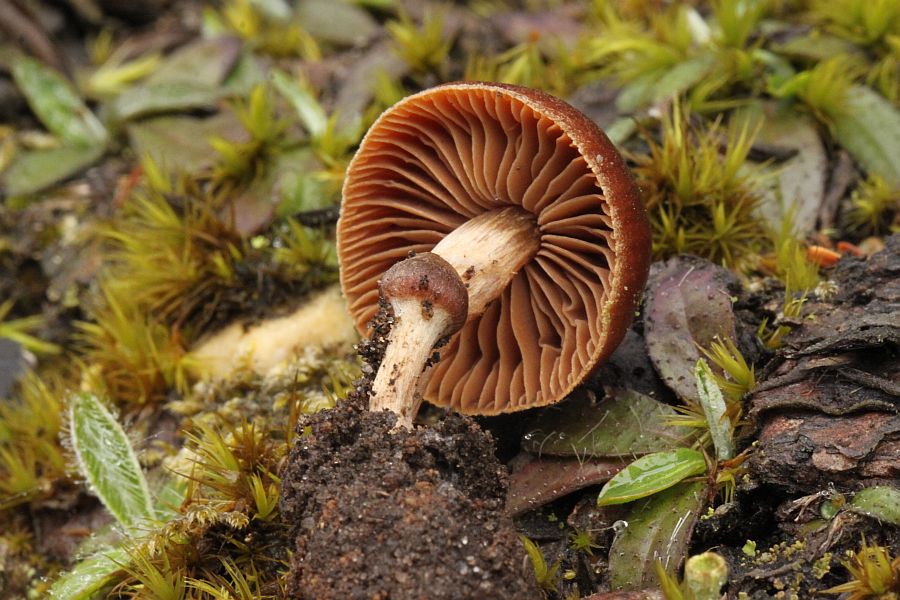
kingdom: Fungi
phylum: Basidiomycota
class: Agaricomycetes
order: Agaricales
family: Cortinariaceae
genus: Cortinarius
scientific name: Cortinarius denigratoides
